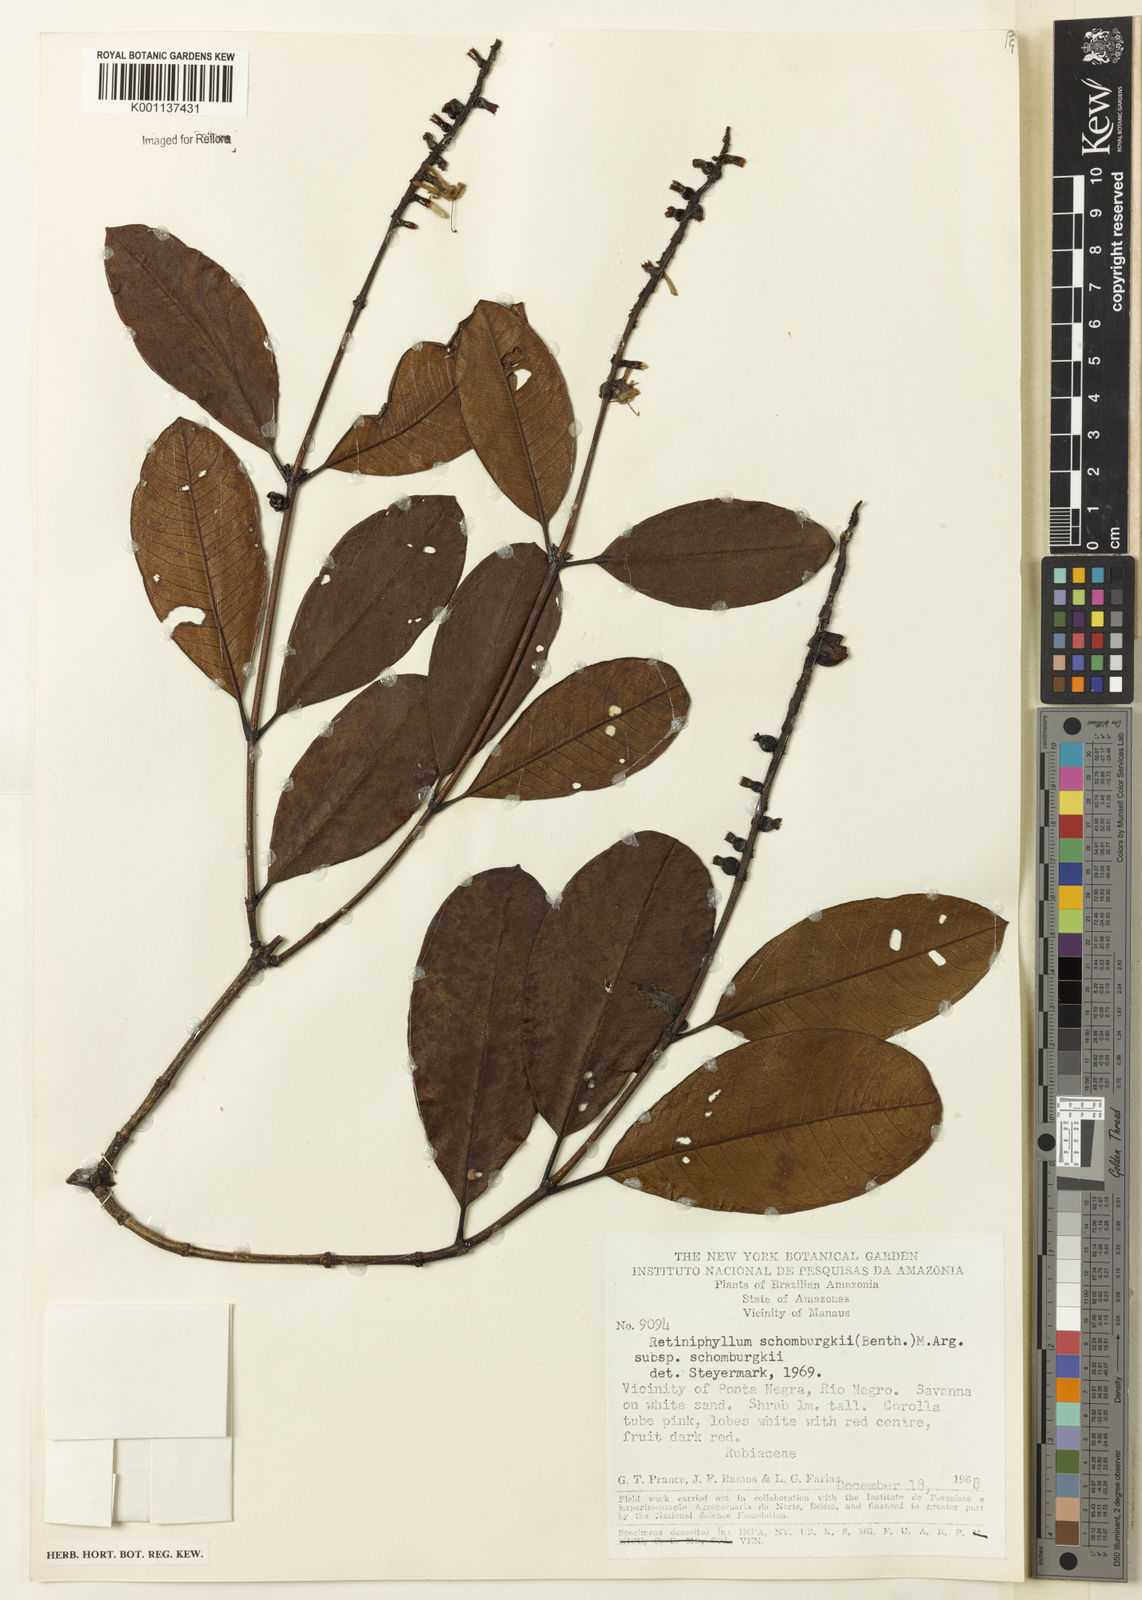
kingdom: Plantae
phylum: Tracheophyta
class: Magnoliopsida
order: Gentianales
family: Rubiaceae
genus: Retiniphyllum
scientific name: Retiniphyllum
